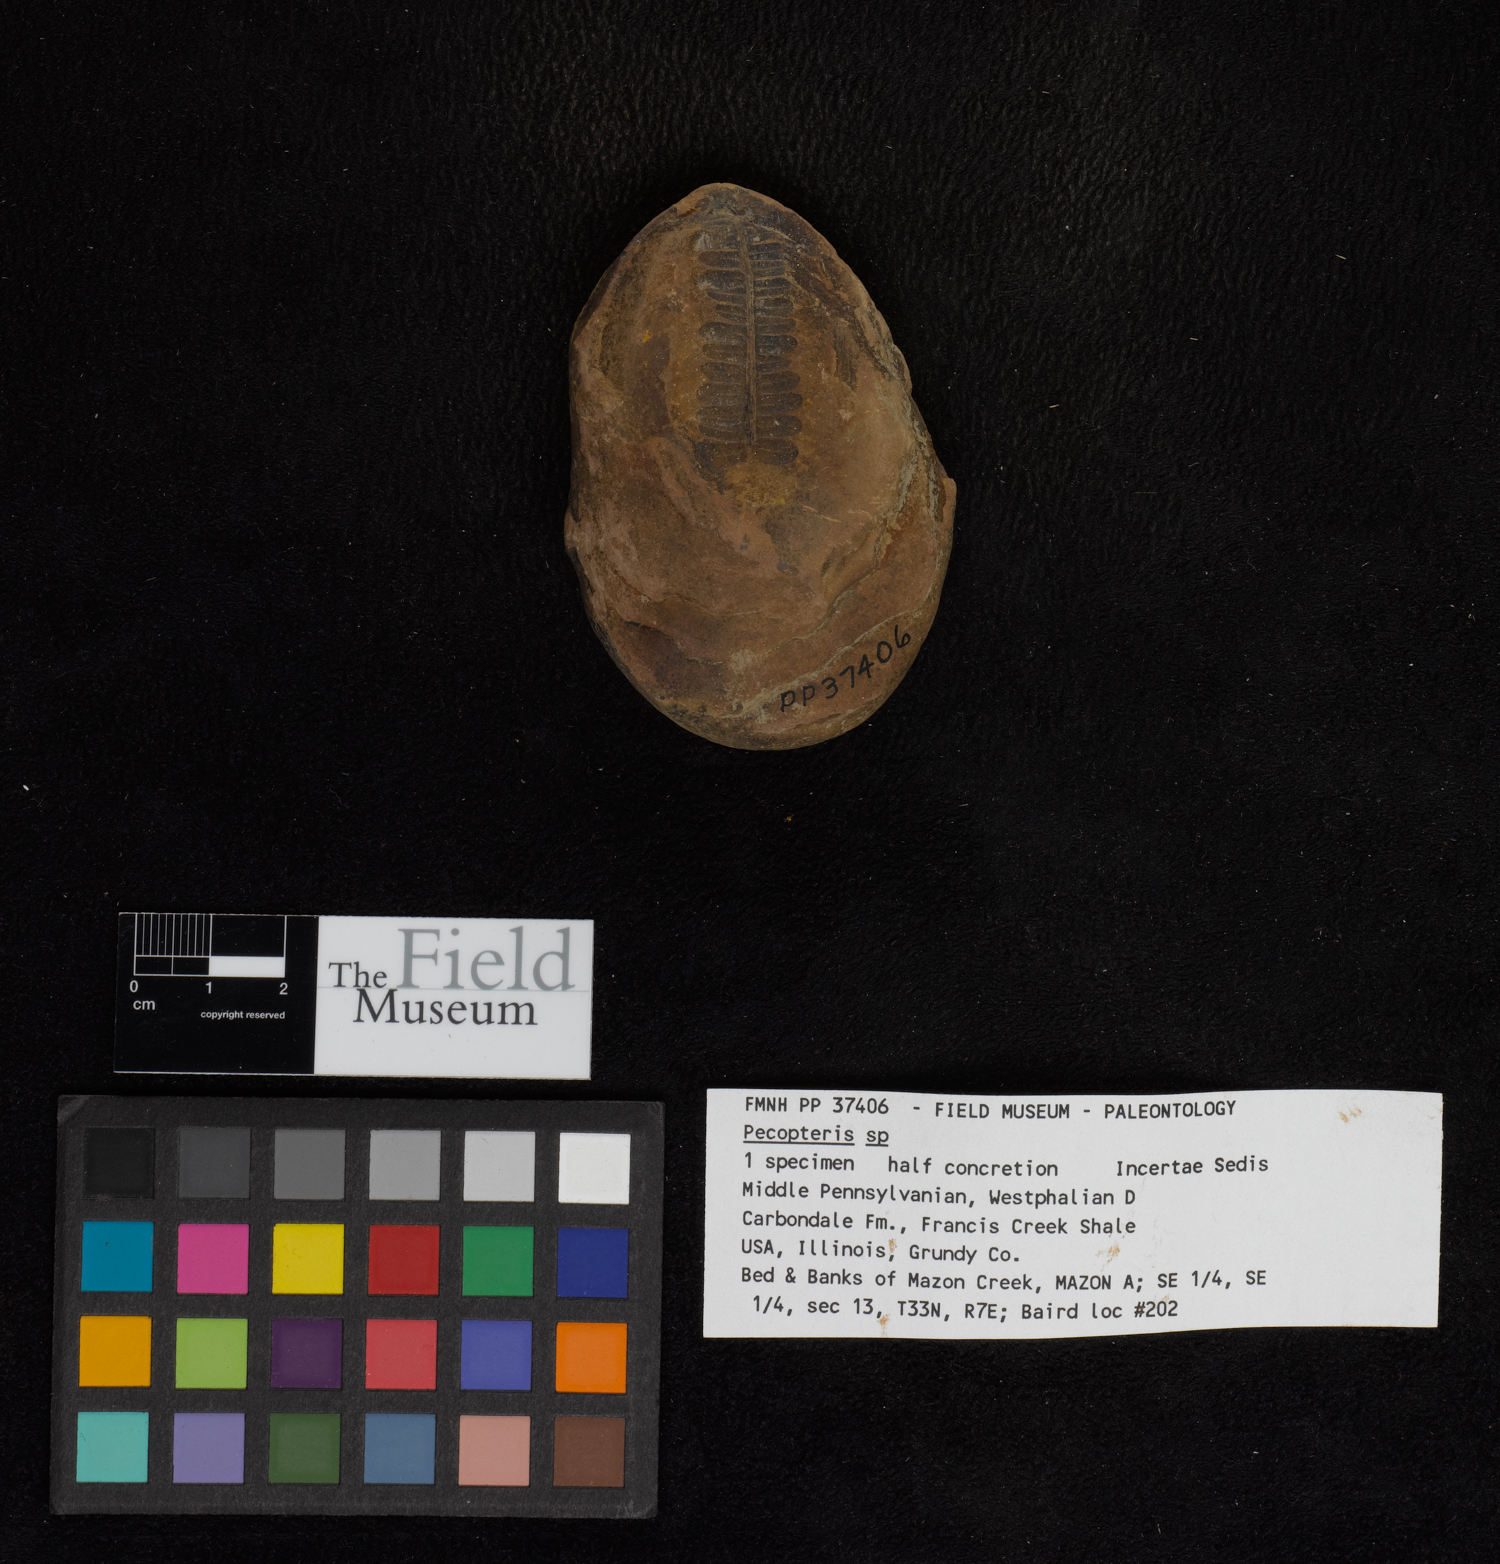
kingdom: Plantae
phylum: Tracheophyta
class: Polypodiopsida
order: Marattiales
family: Asterothecaceae
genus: Pecopteris
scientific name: Pecopteris
